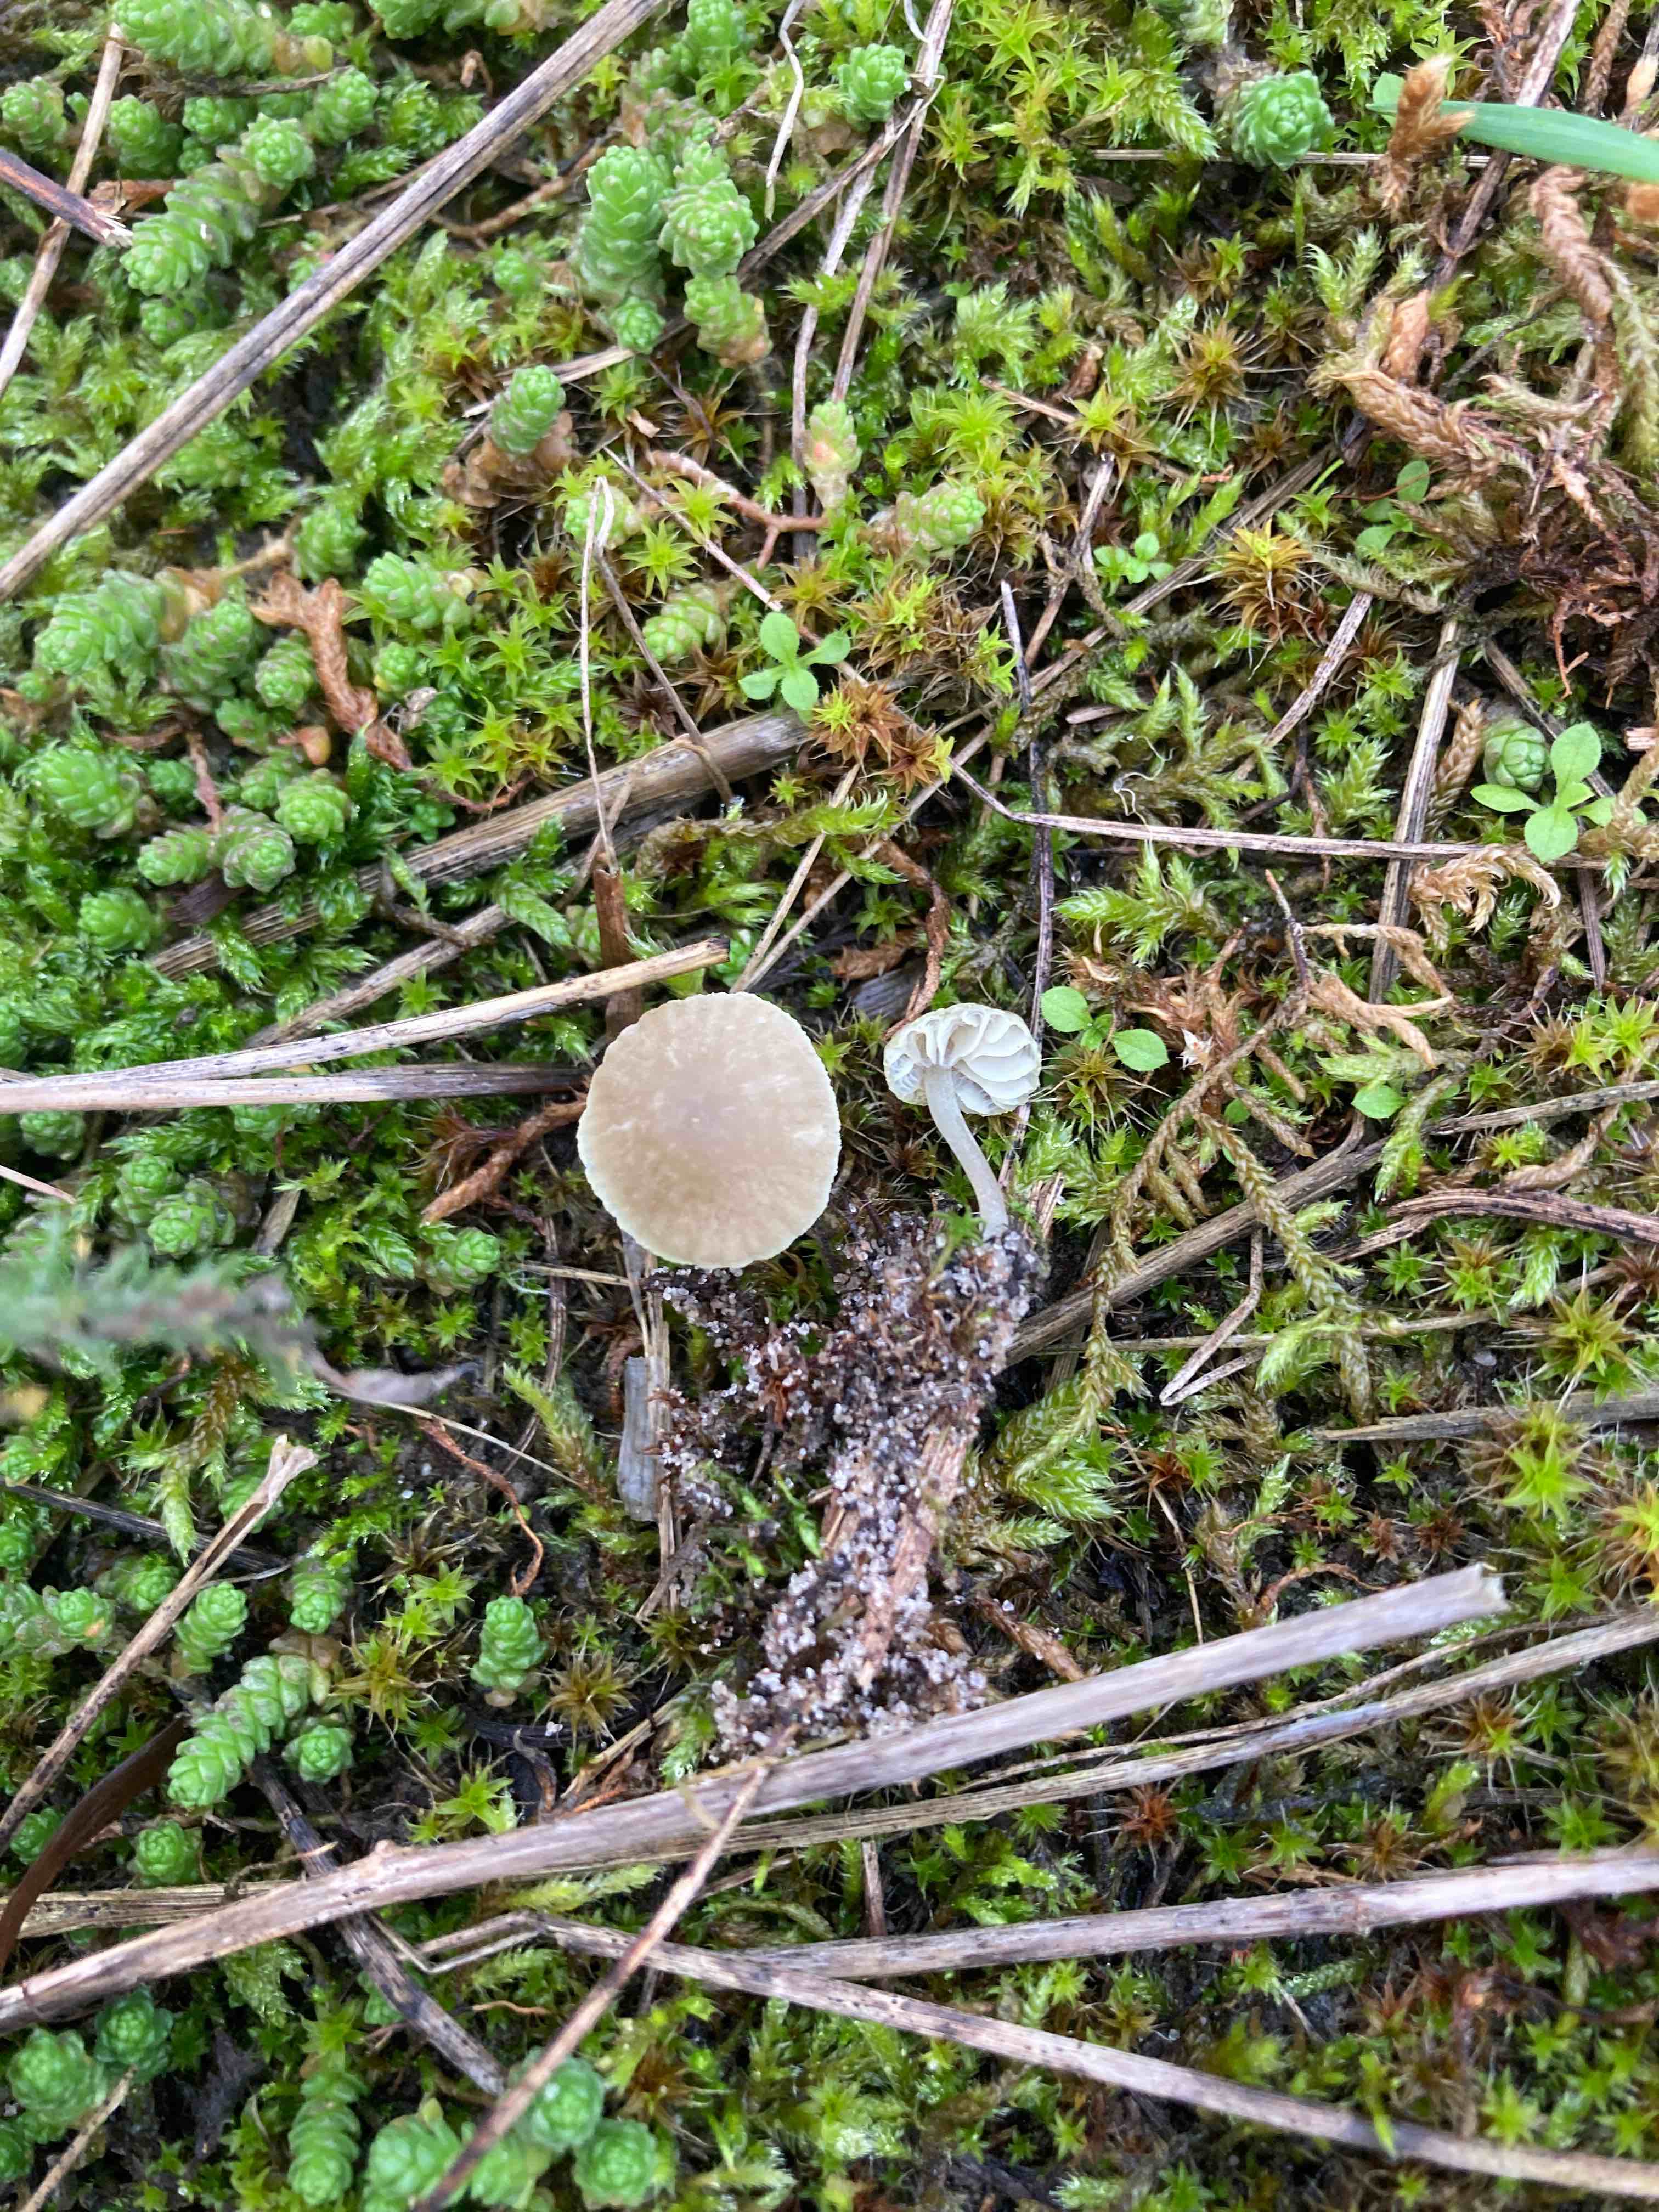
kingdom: Fungi
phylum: Basidiomycota
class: Agaricomycetes
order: Agaricales
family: Mycenaceae
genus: Mycena
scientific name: Mycena chlorantha
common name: klit-huesvamp
